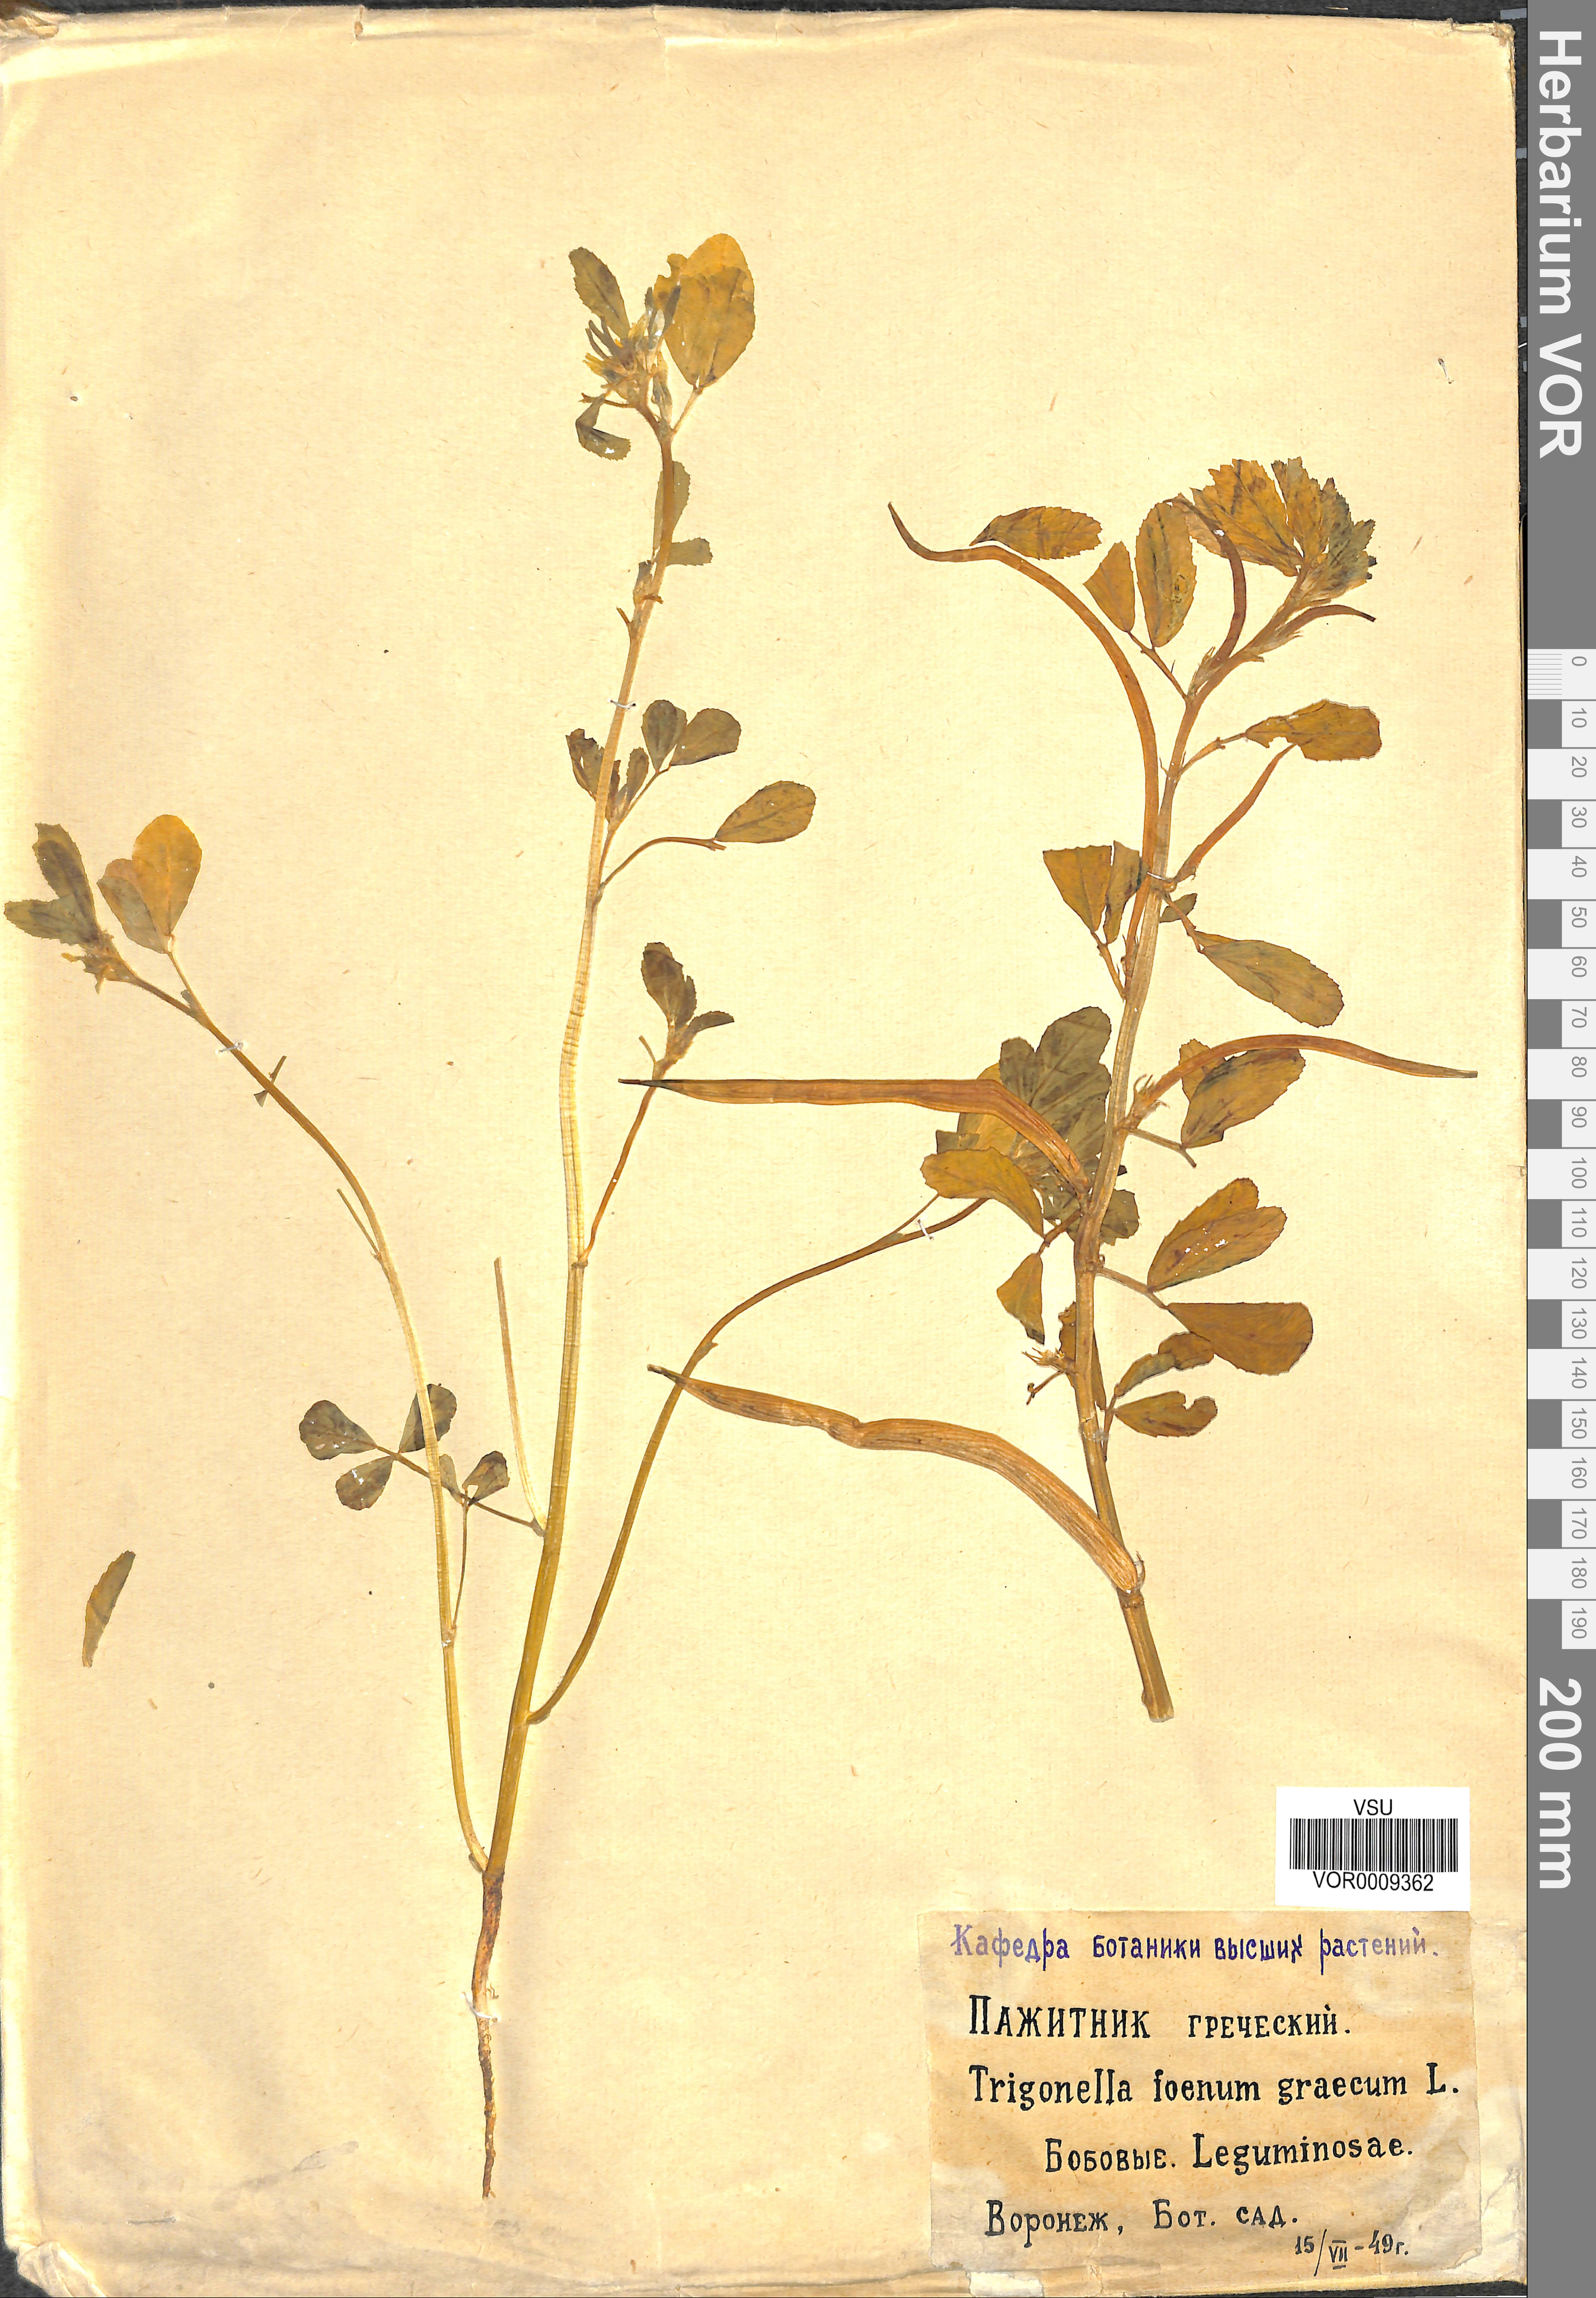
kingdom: Plantae
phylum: Tracheophyta
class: Magnoliopsida
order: Fabales
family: Fabaceae
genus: Trigonella
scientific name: Trigonella foenum-graecum
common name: Fenugreek
